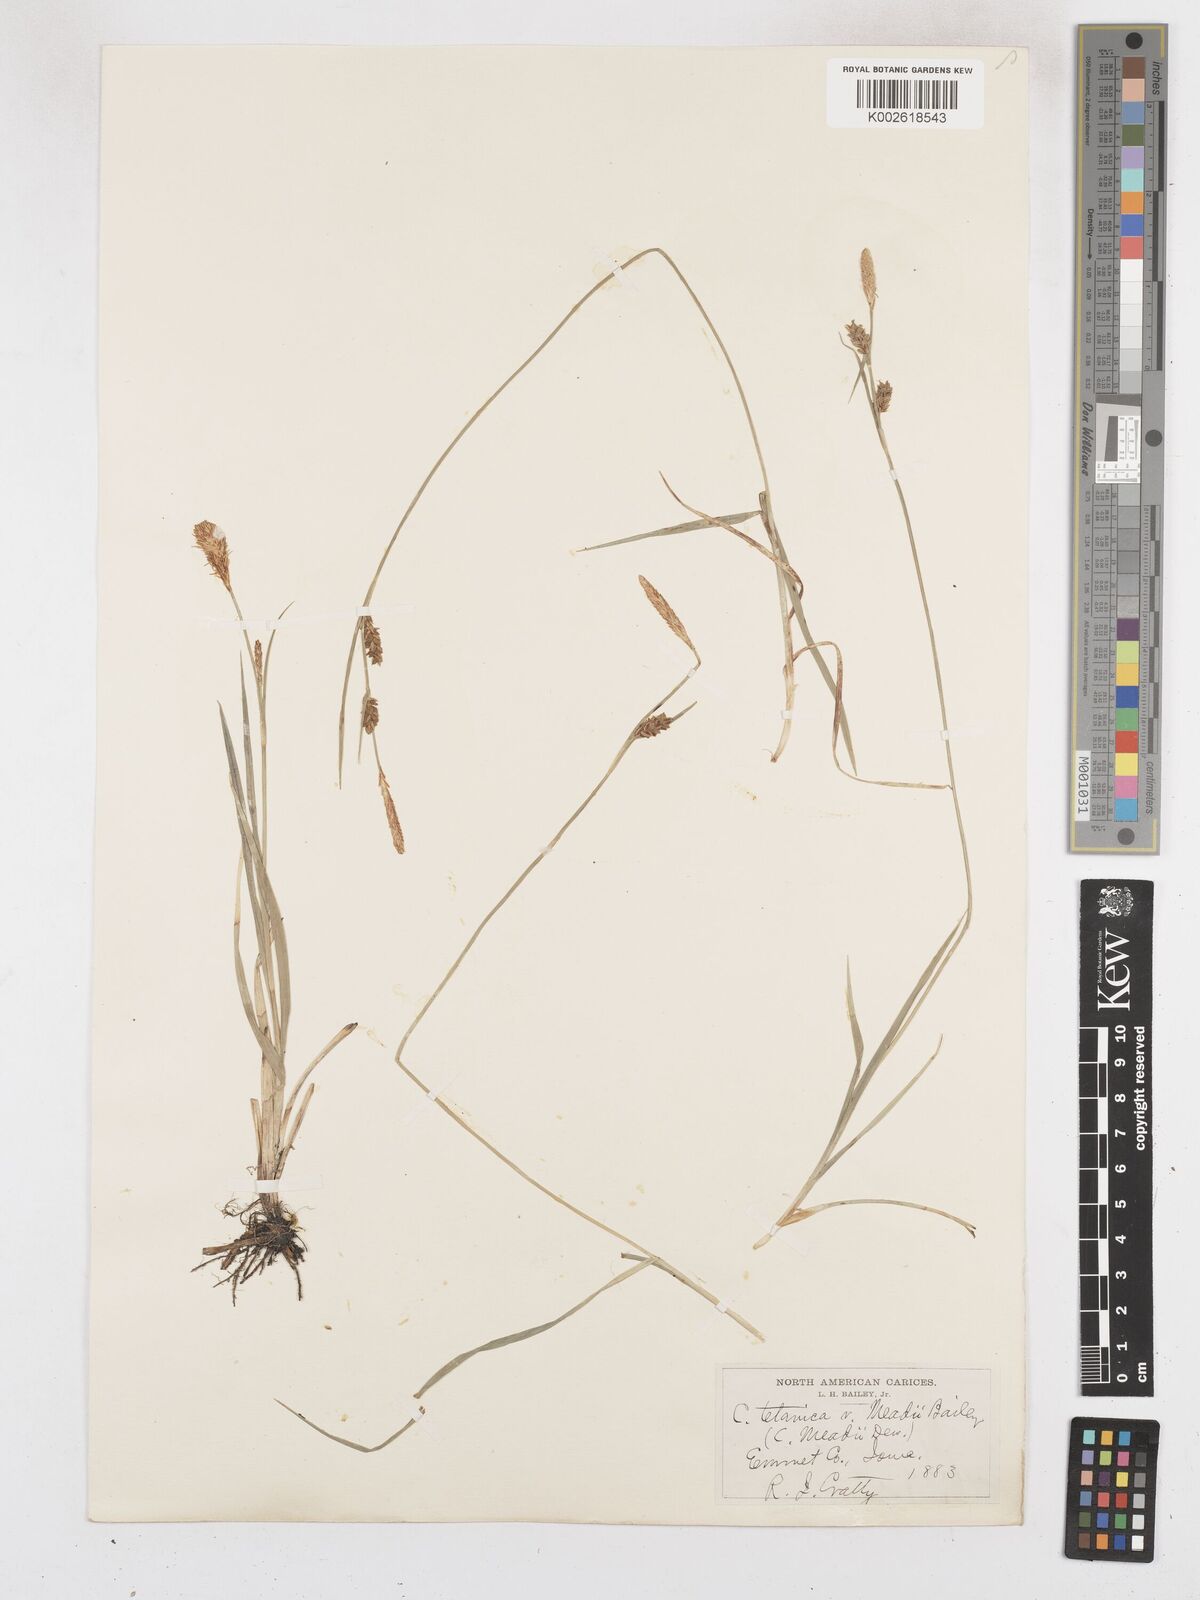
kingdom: Plantae
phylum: Tracheophyta
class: Liliopsida
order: Poales
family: Cyperaceae
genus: Carex
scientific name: Carex meadii
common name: Mead's sedge
